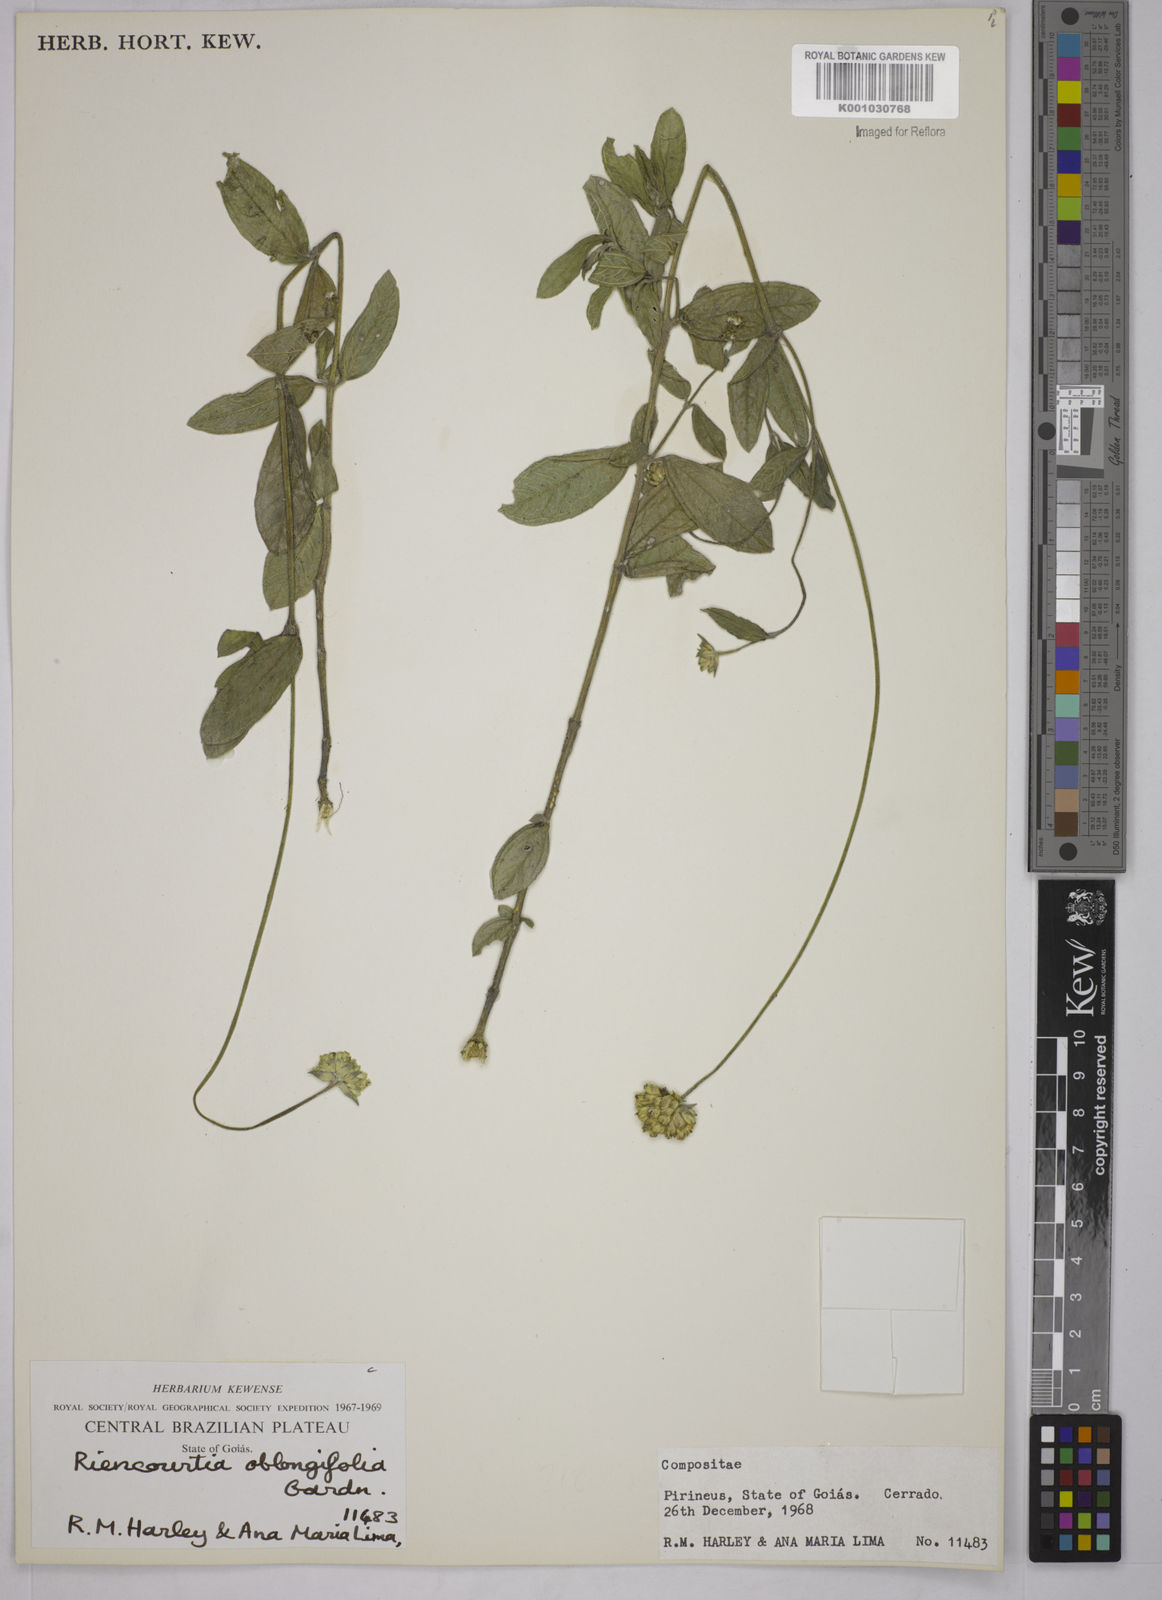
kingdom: Plantae
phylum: Tracheophyta
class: Magnoliopsida
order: Asterales
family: Asteraceae
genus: Riencourtia
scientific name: Riencourtia oblongifolia
